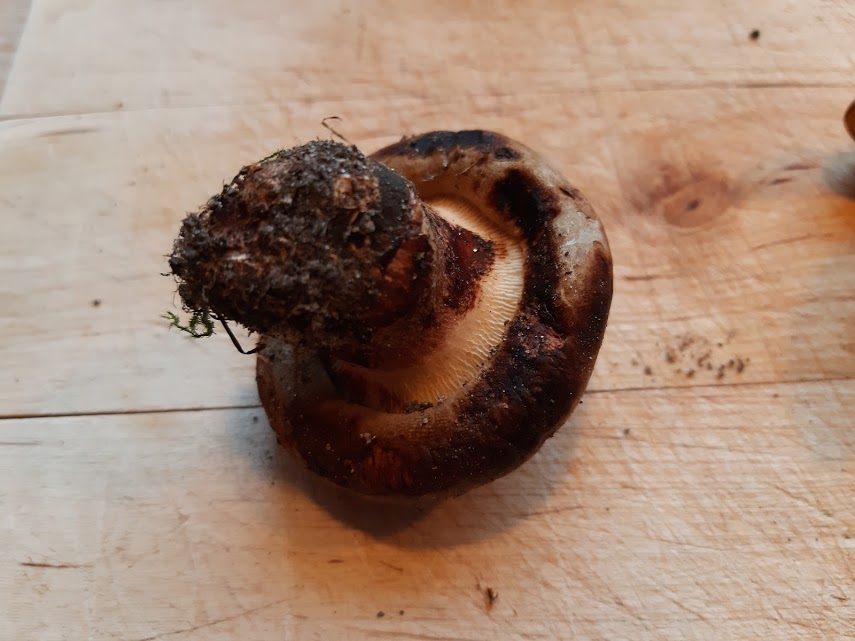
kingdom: Fungi
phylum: Basidiomycota
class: Agaricomycetes
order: Boletales
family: Paxillaceae
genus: Paxillus
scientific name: Paxillus
